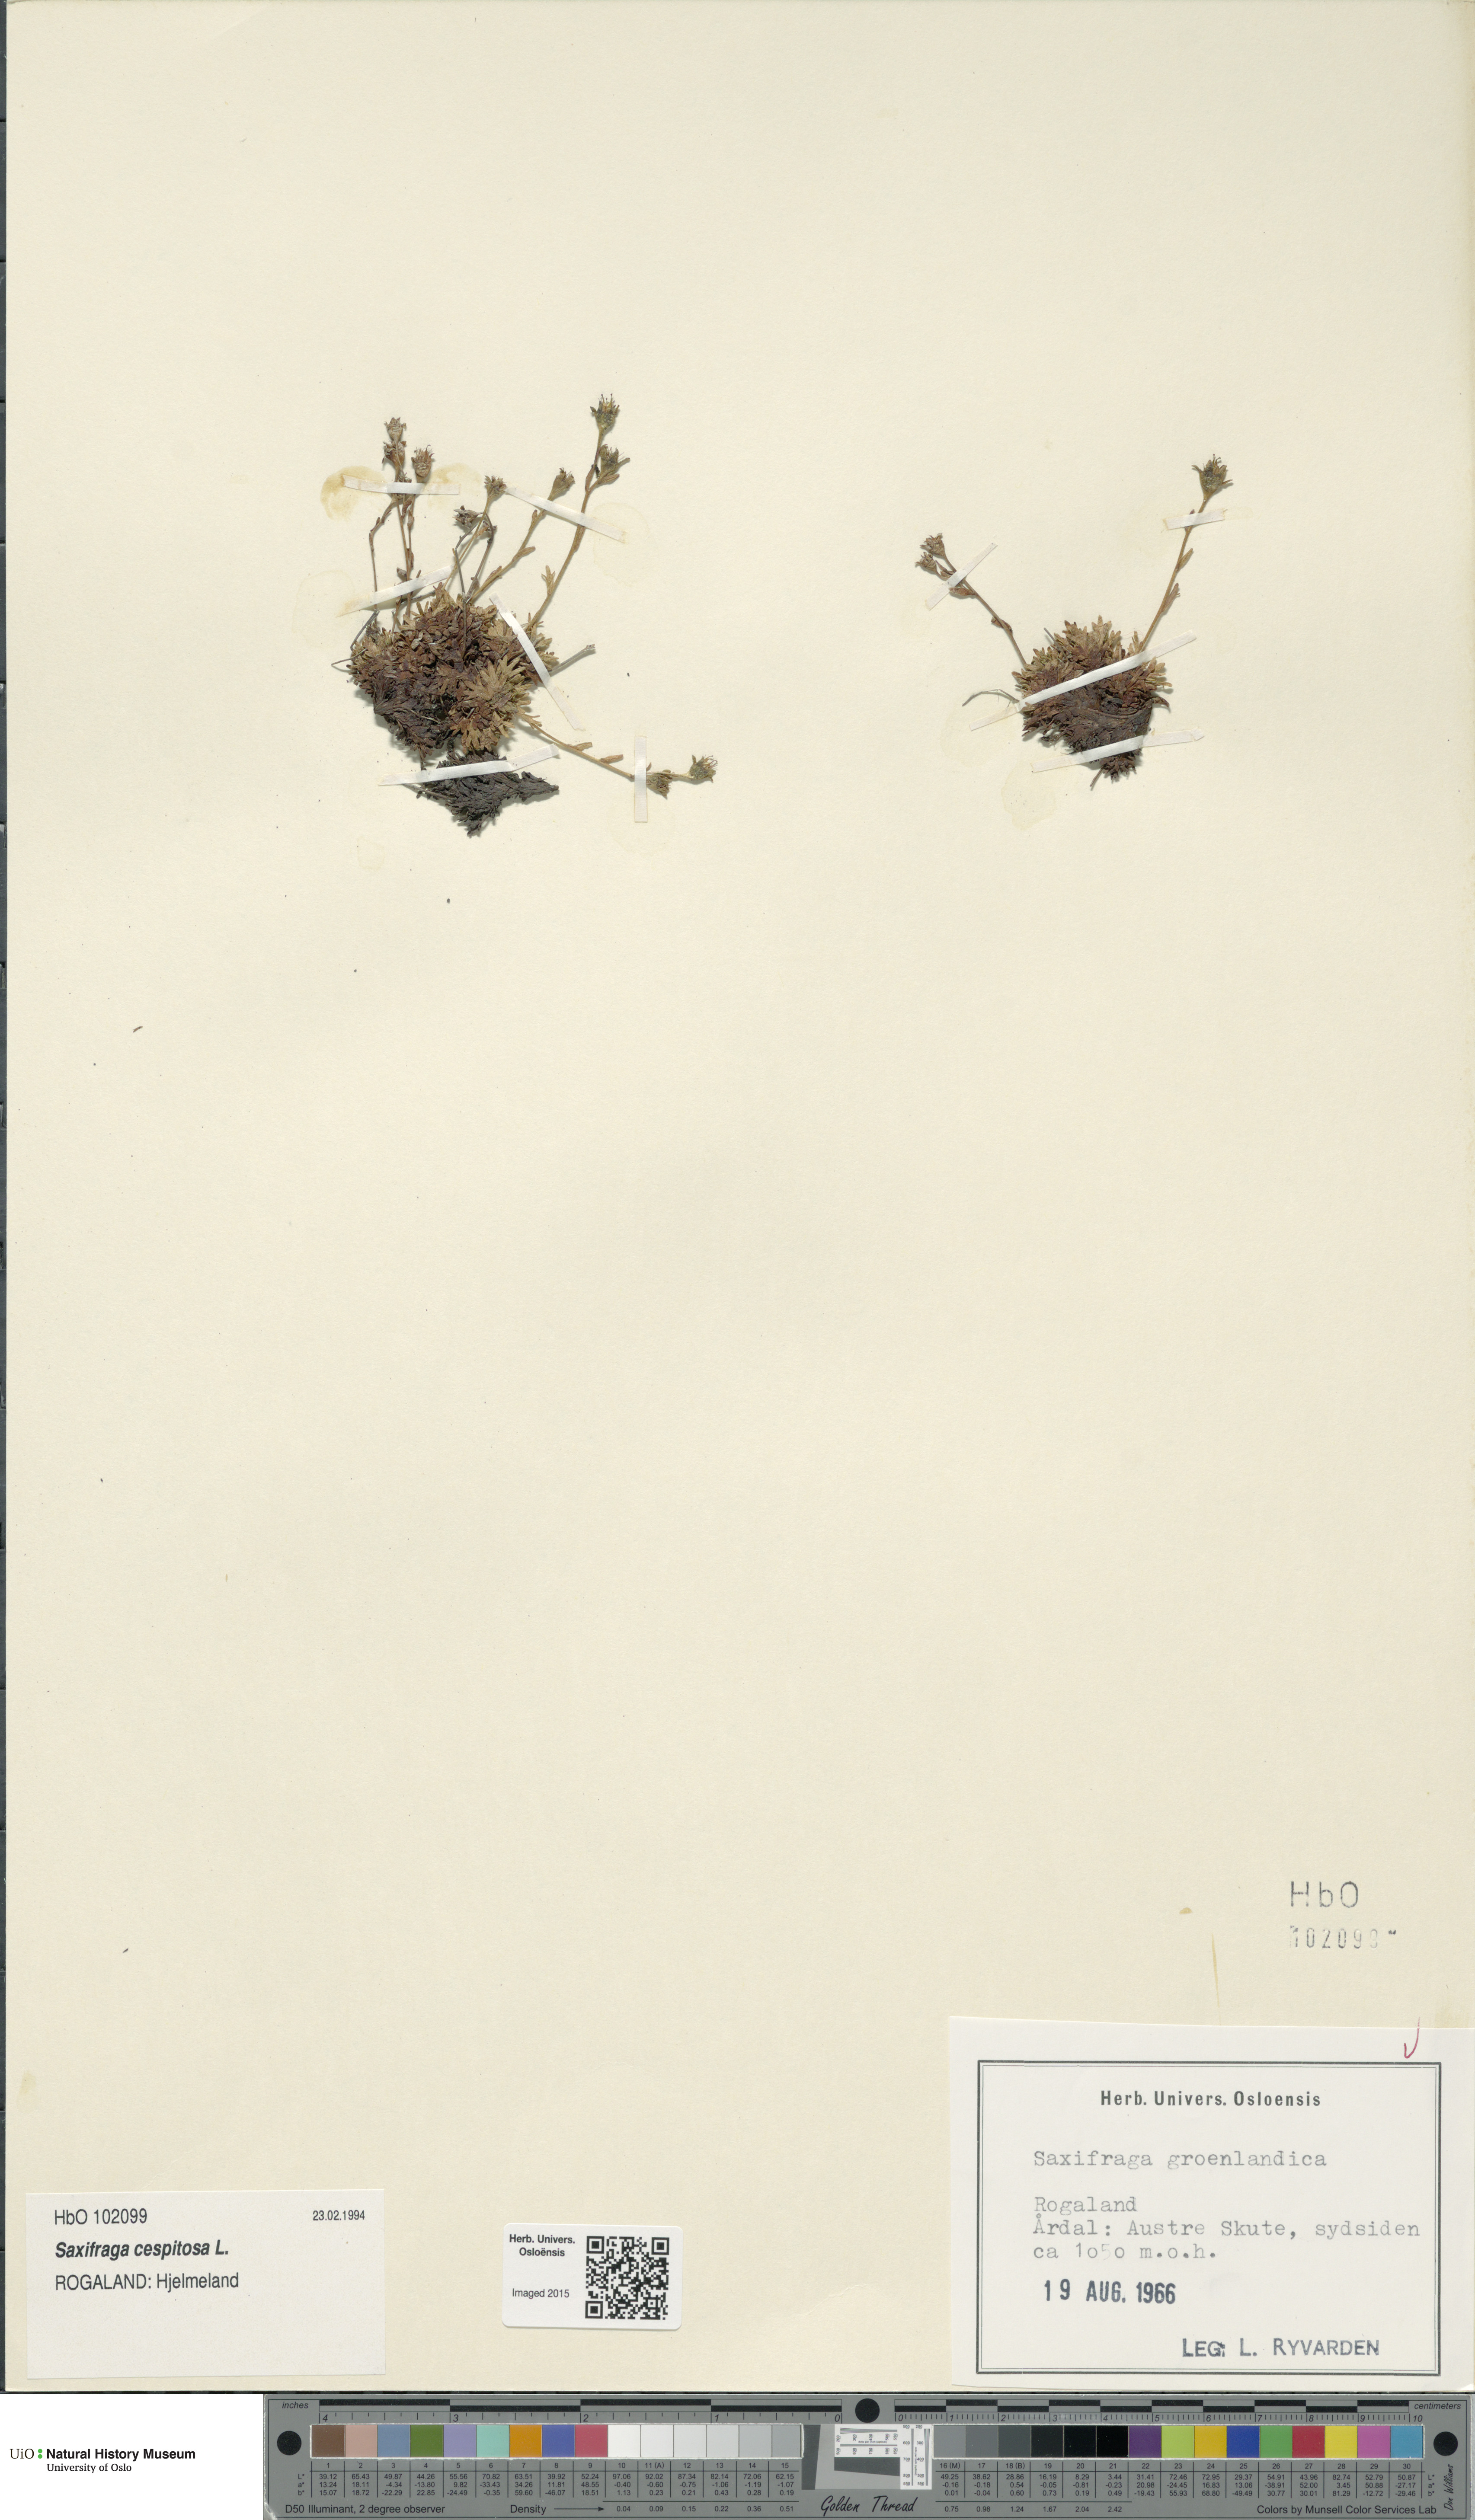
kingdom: Plantae
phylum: Tracheophyta
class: Magnoliopsida
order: Saxifragales
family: Saxifragaceae
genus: Saxifraga
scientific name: Saxifraga cespitosa
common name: Tufted saxifrage
